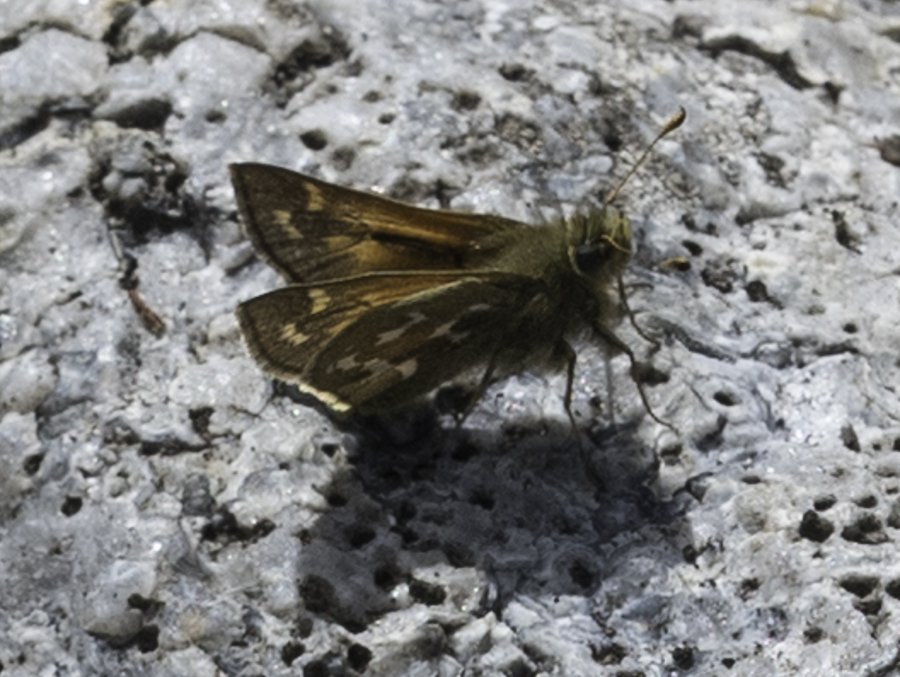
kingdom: Animalia
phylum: Arthropoda
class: Insecta
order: Lepidoptera
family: Hesperiidae
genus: Hesperia
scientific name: Hesperia comma
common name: Common Branded Skipper
